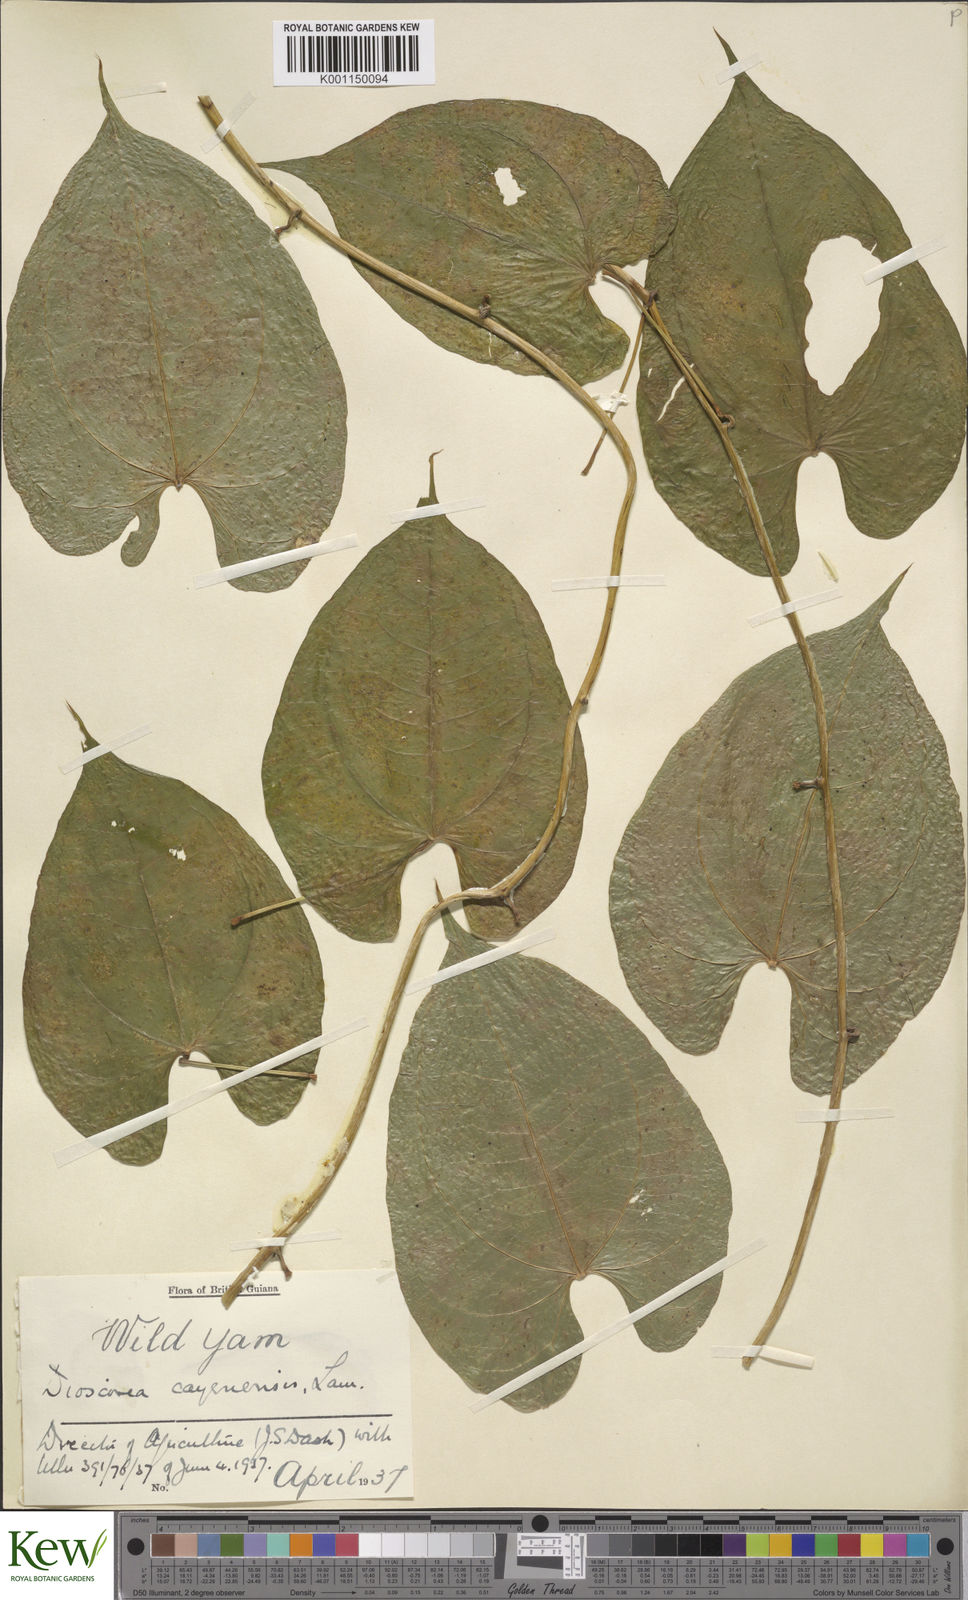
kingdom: Plantae
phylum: Tracheophyta
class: Liliopsida
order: Dioscoreales
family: Dioscoreaceae
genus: Dioscorea
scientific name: Dioscorea cayenensis
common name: Attoto yam
